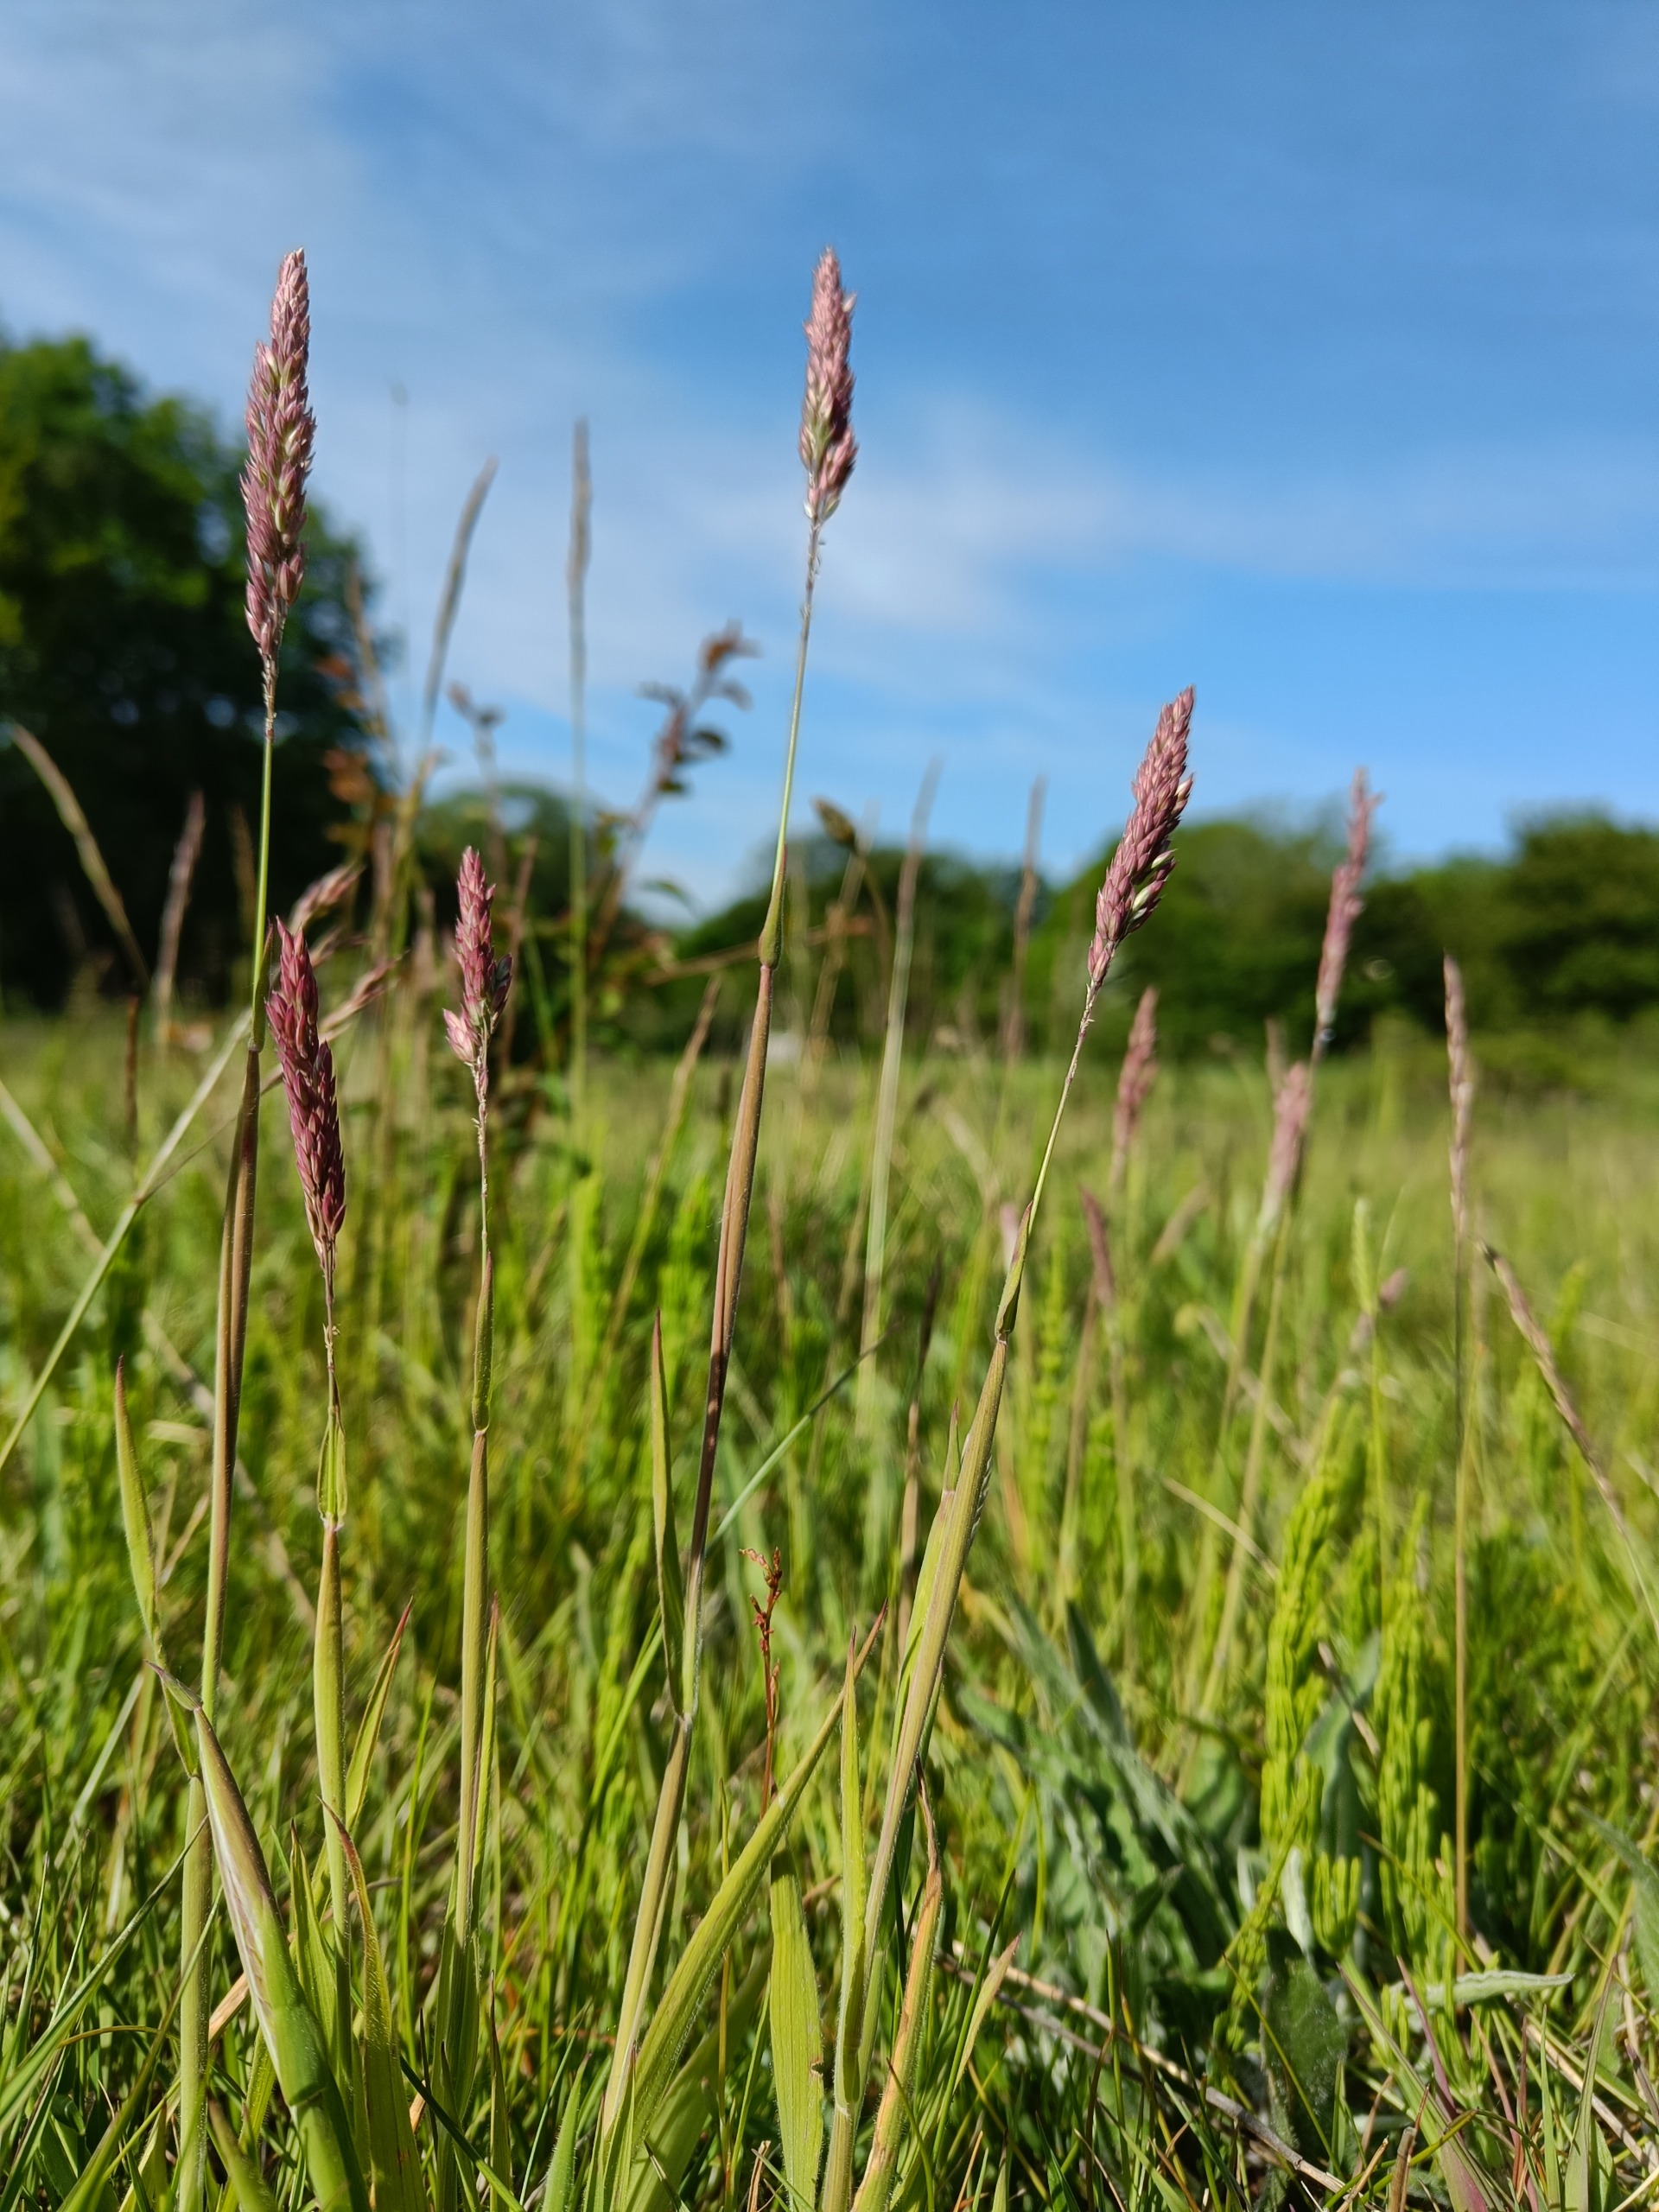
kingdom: Plantae
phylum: Tracheophyta
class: Liliopsida
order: Poales
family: Poaceae
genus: Holcus
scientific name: Holcus lanatus
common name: Fløjlsgræs
